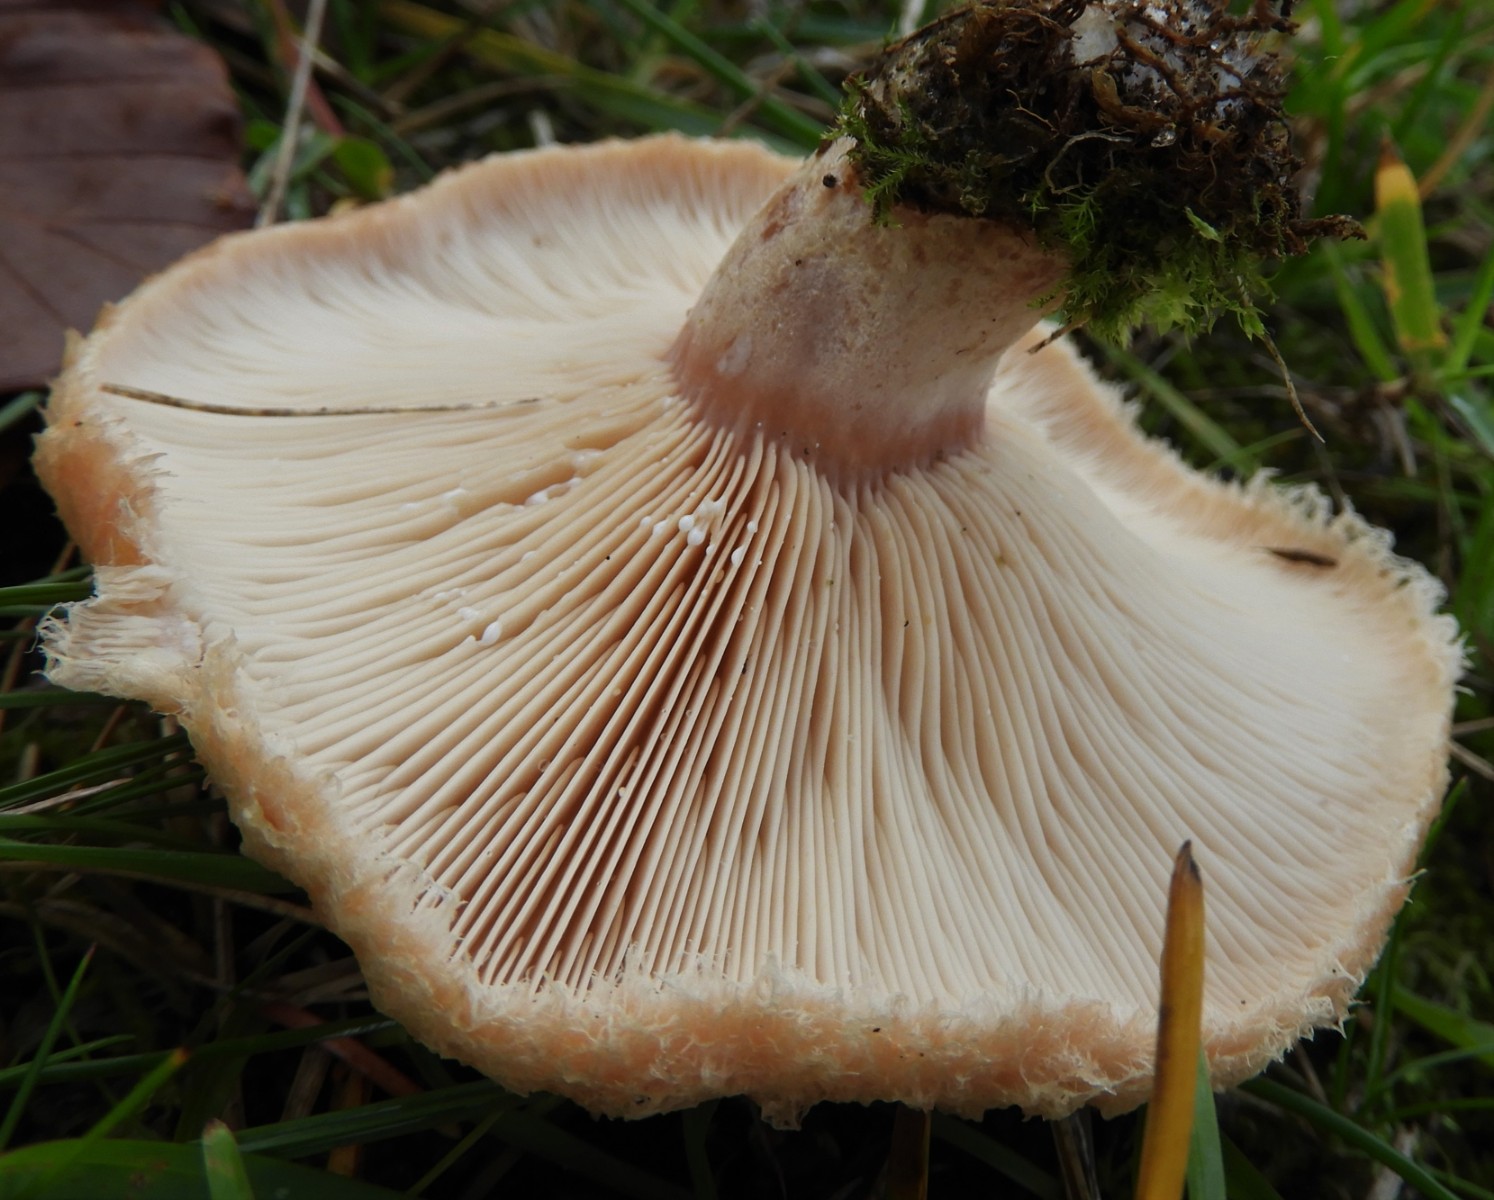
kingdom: Fungi
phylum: Basidiomycota
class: Agaricomycetes
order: Russulales
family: Russulaceae
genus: Lactarius
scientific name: Lactarius pubescens
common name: dunet mælkehat
